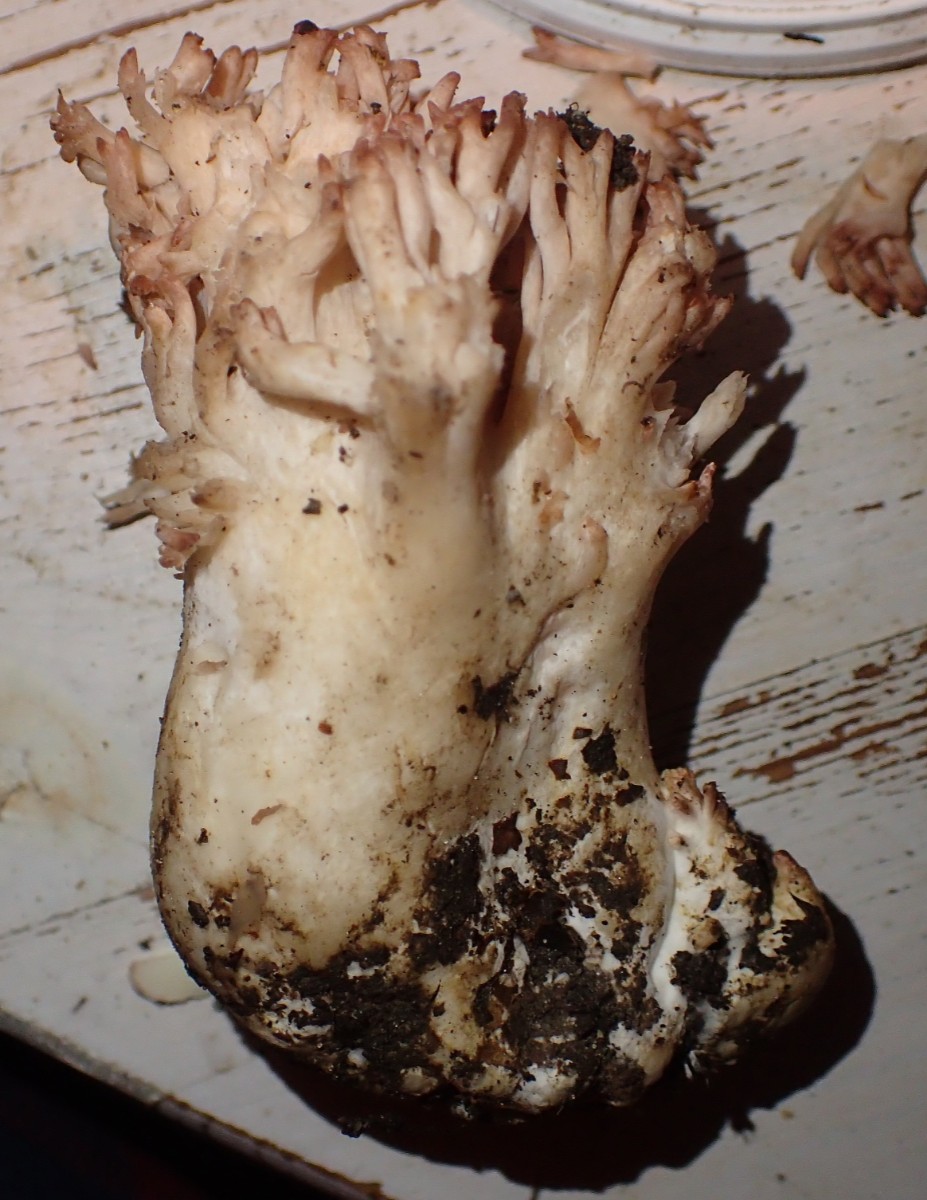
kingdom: Fungi
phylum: Basidiomycota
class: Agaricomycetes
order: Gomphales
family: Gomphaceae
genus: Ramaria
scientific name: Ramaria botrytis
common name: drue-koralsvamp
